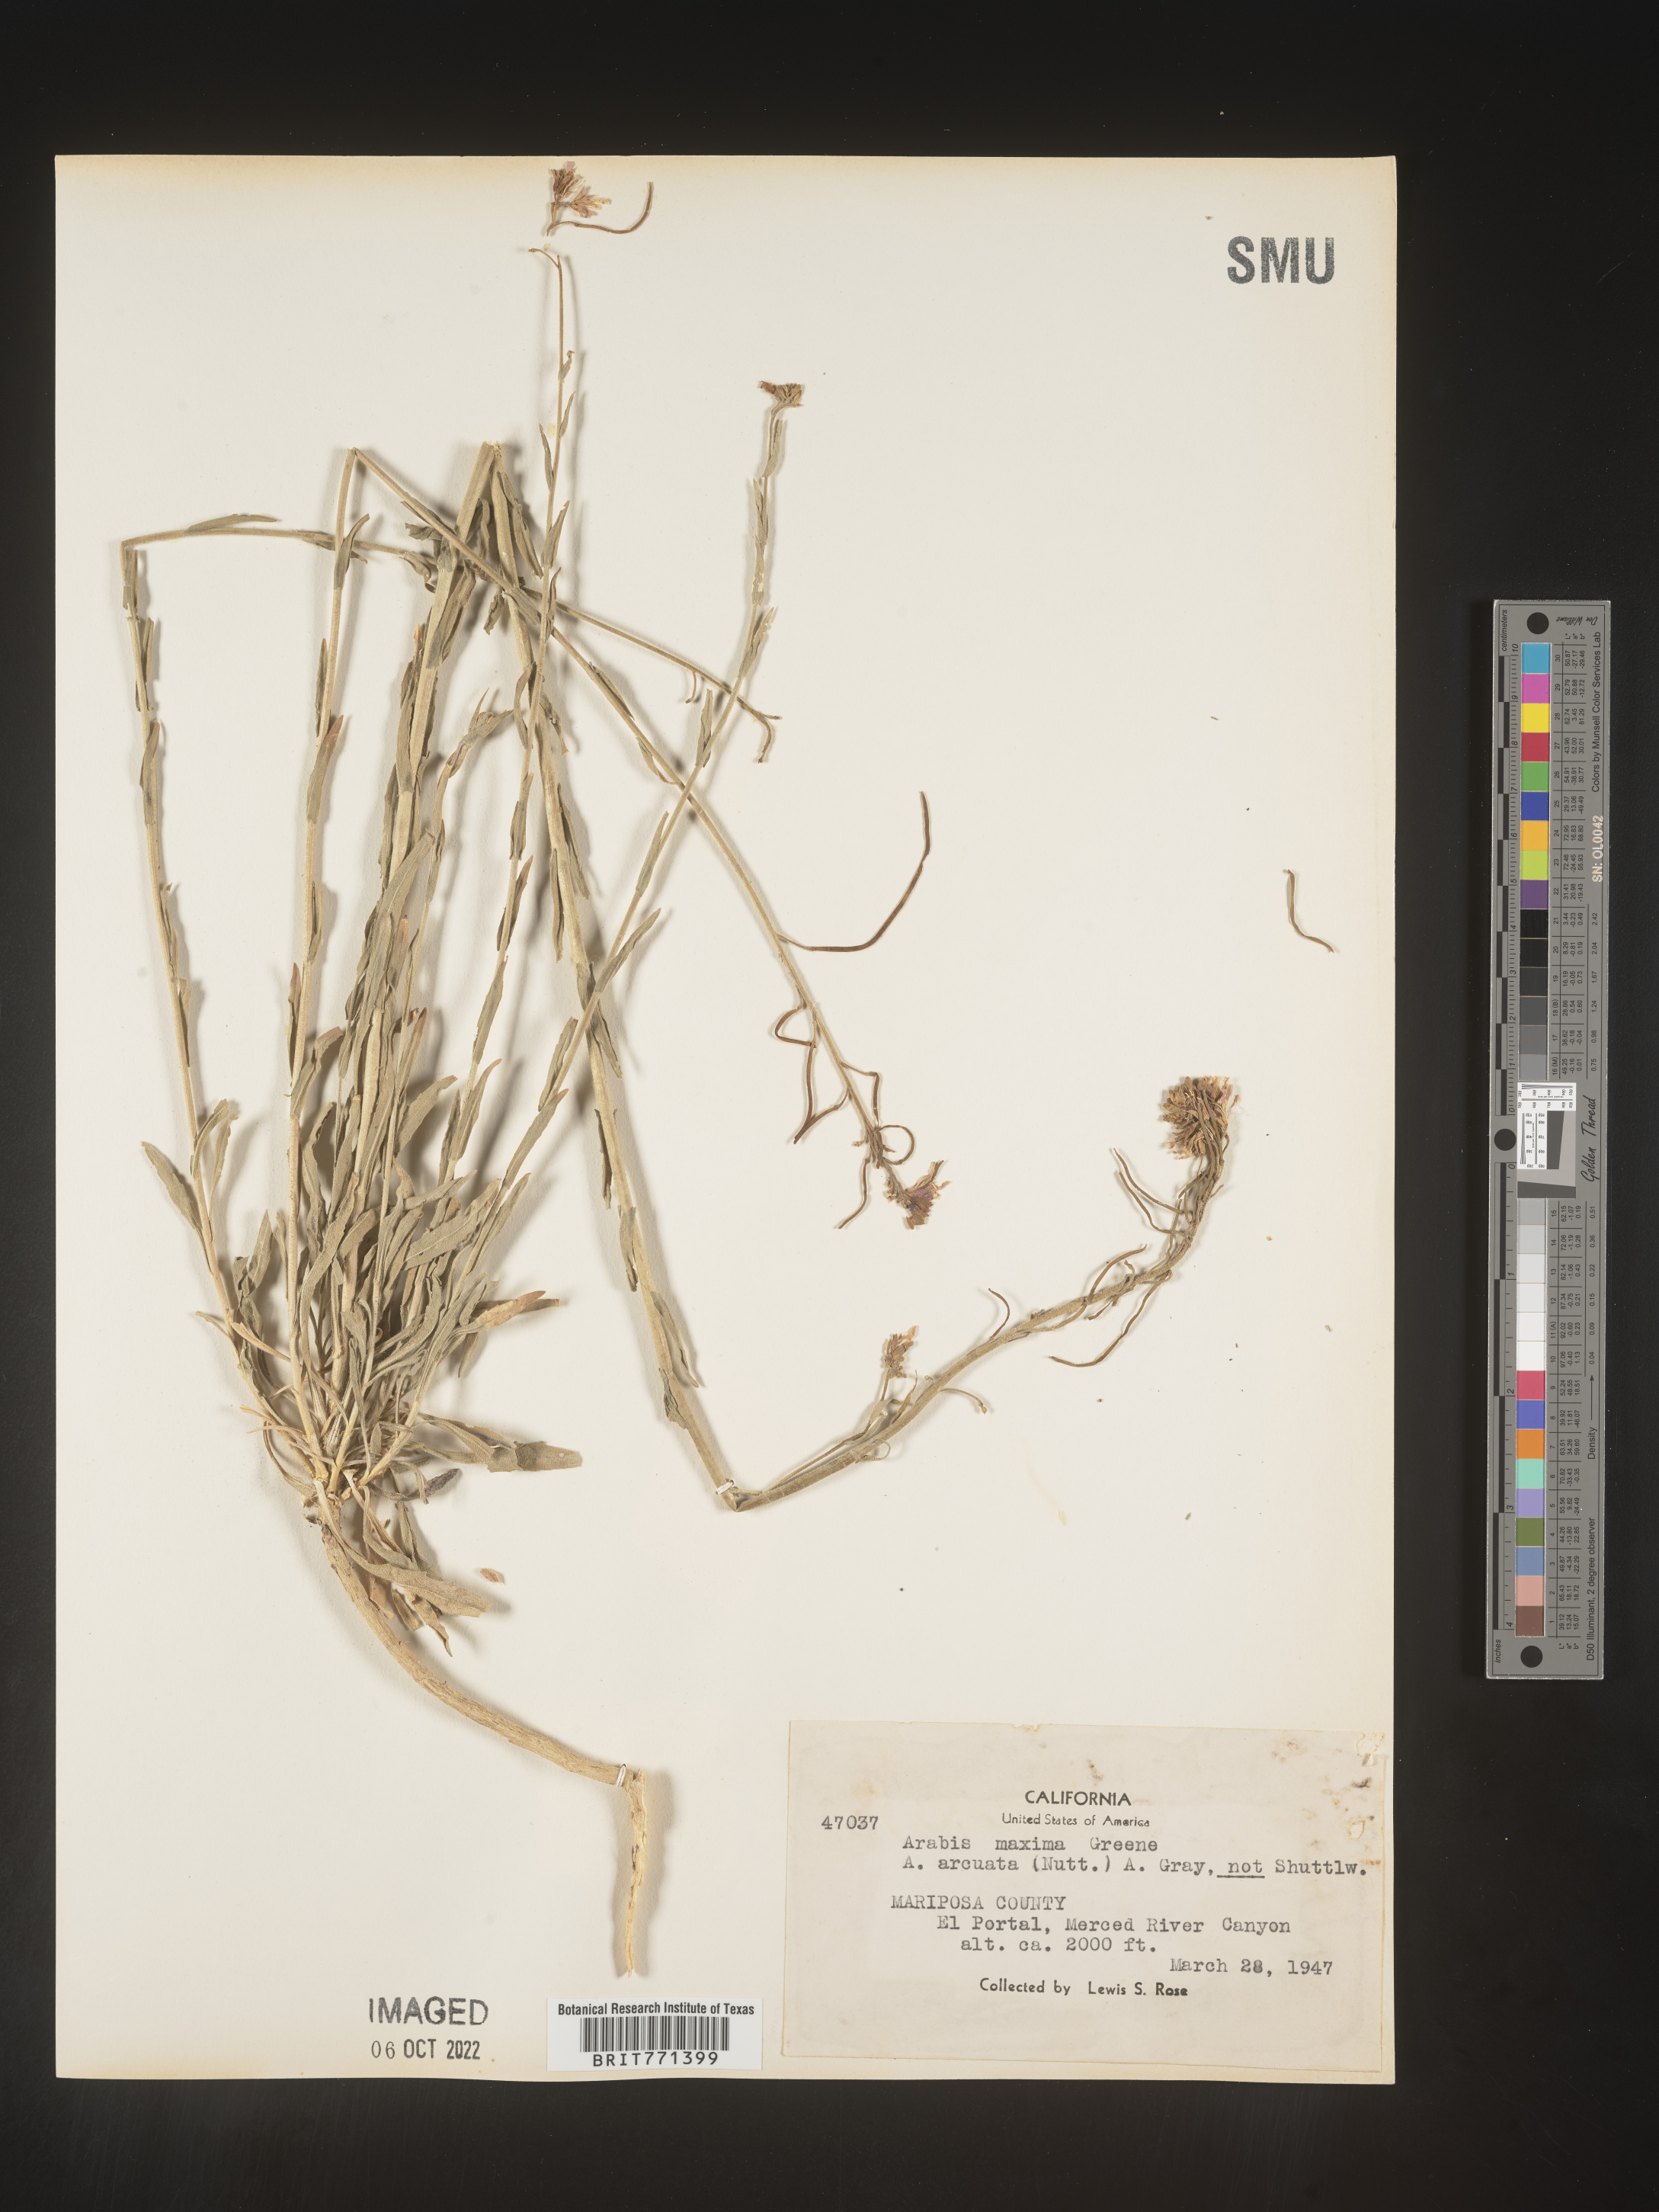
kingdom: Plantae
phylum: Tracheophyta
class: Magnoliopsida
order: Brassicales
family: Brassicaceae
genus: Arabis
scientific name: Arabis
